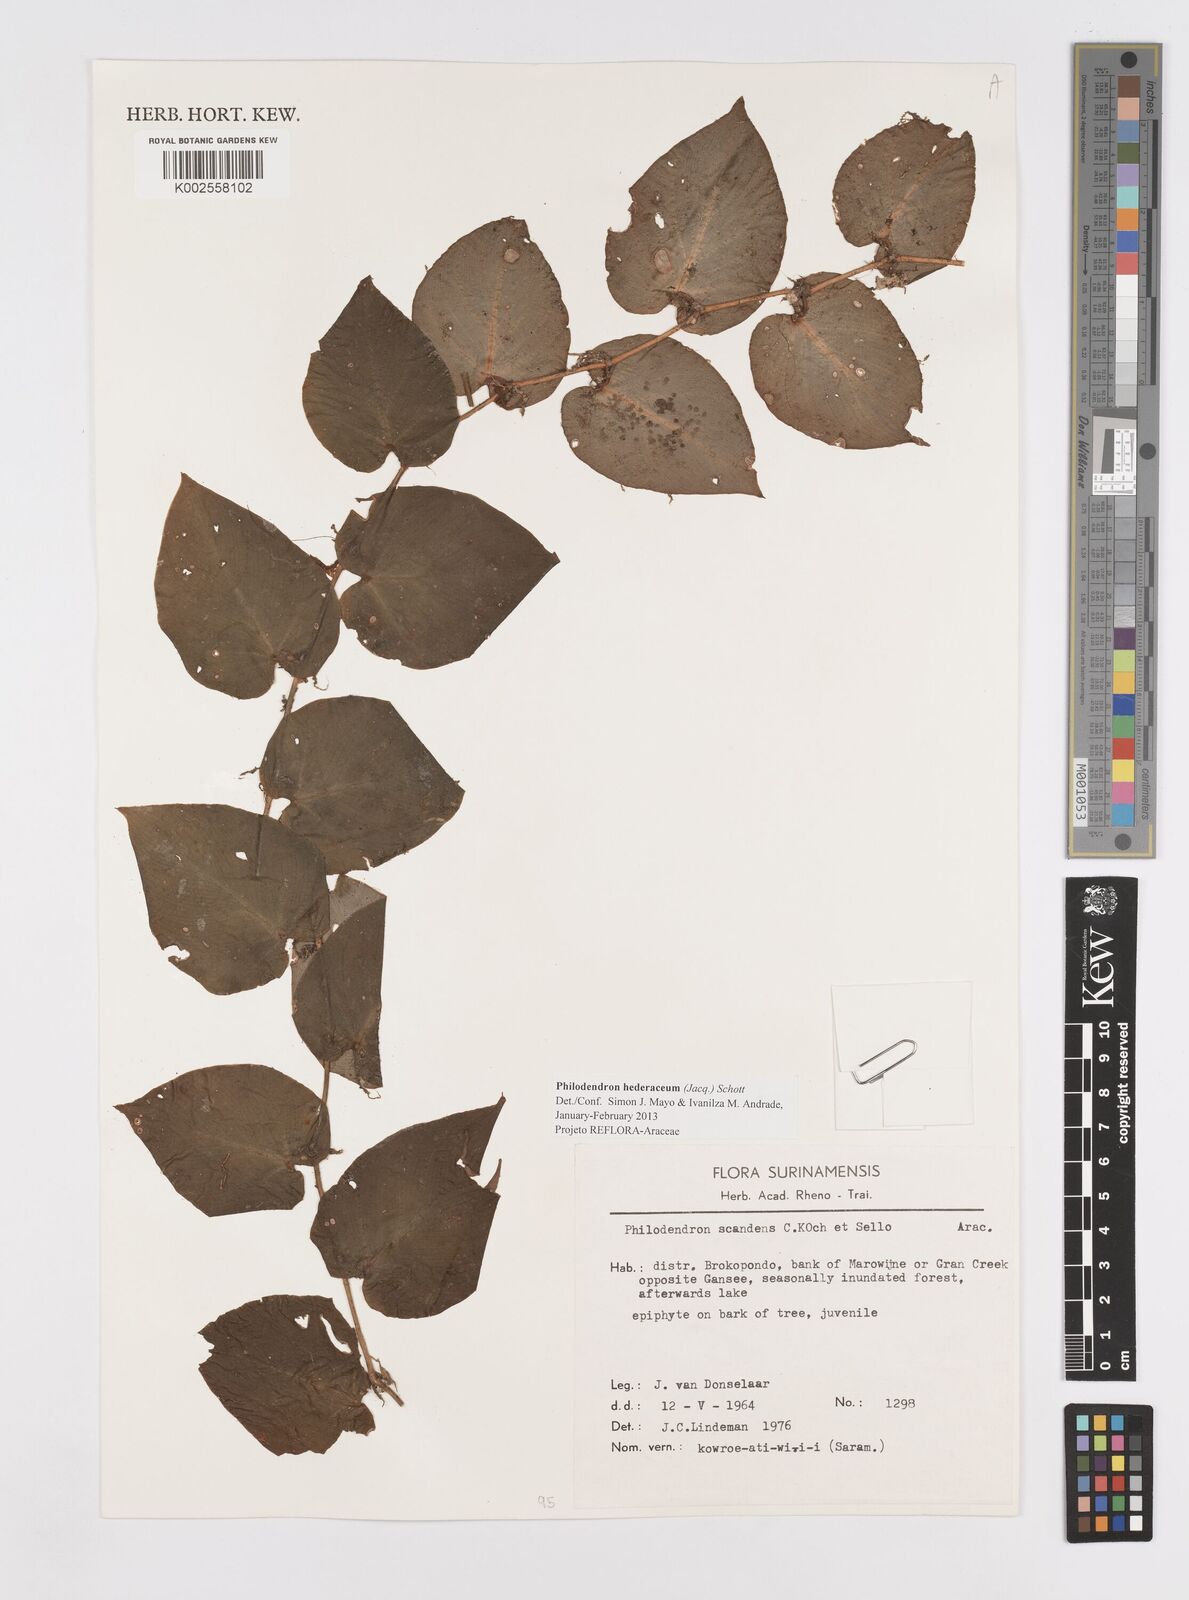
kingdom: Plantae
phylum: Tracheophyta
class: Liliopsida
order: Alismatales
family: Araceae
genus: Philodendron
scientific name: Philodendron hederaceum
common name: Vilevine
